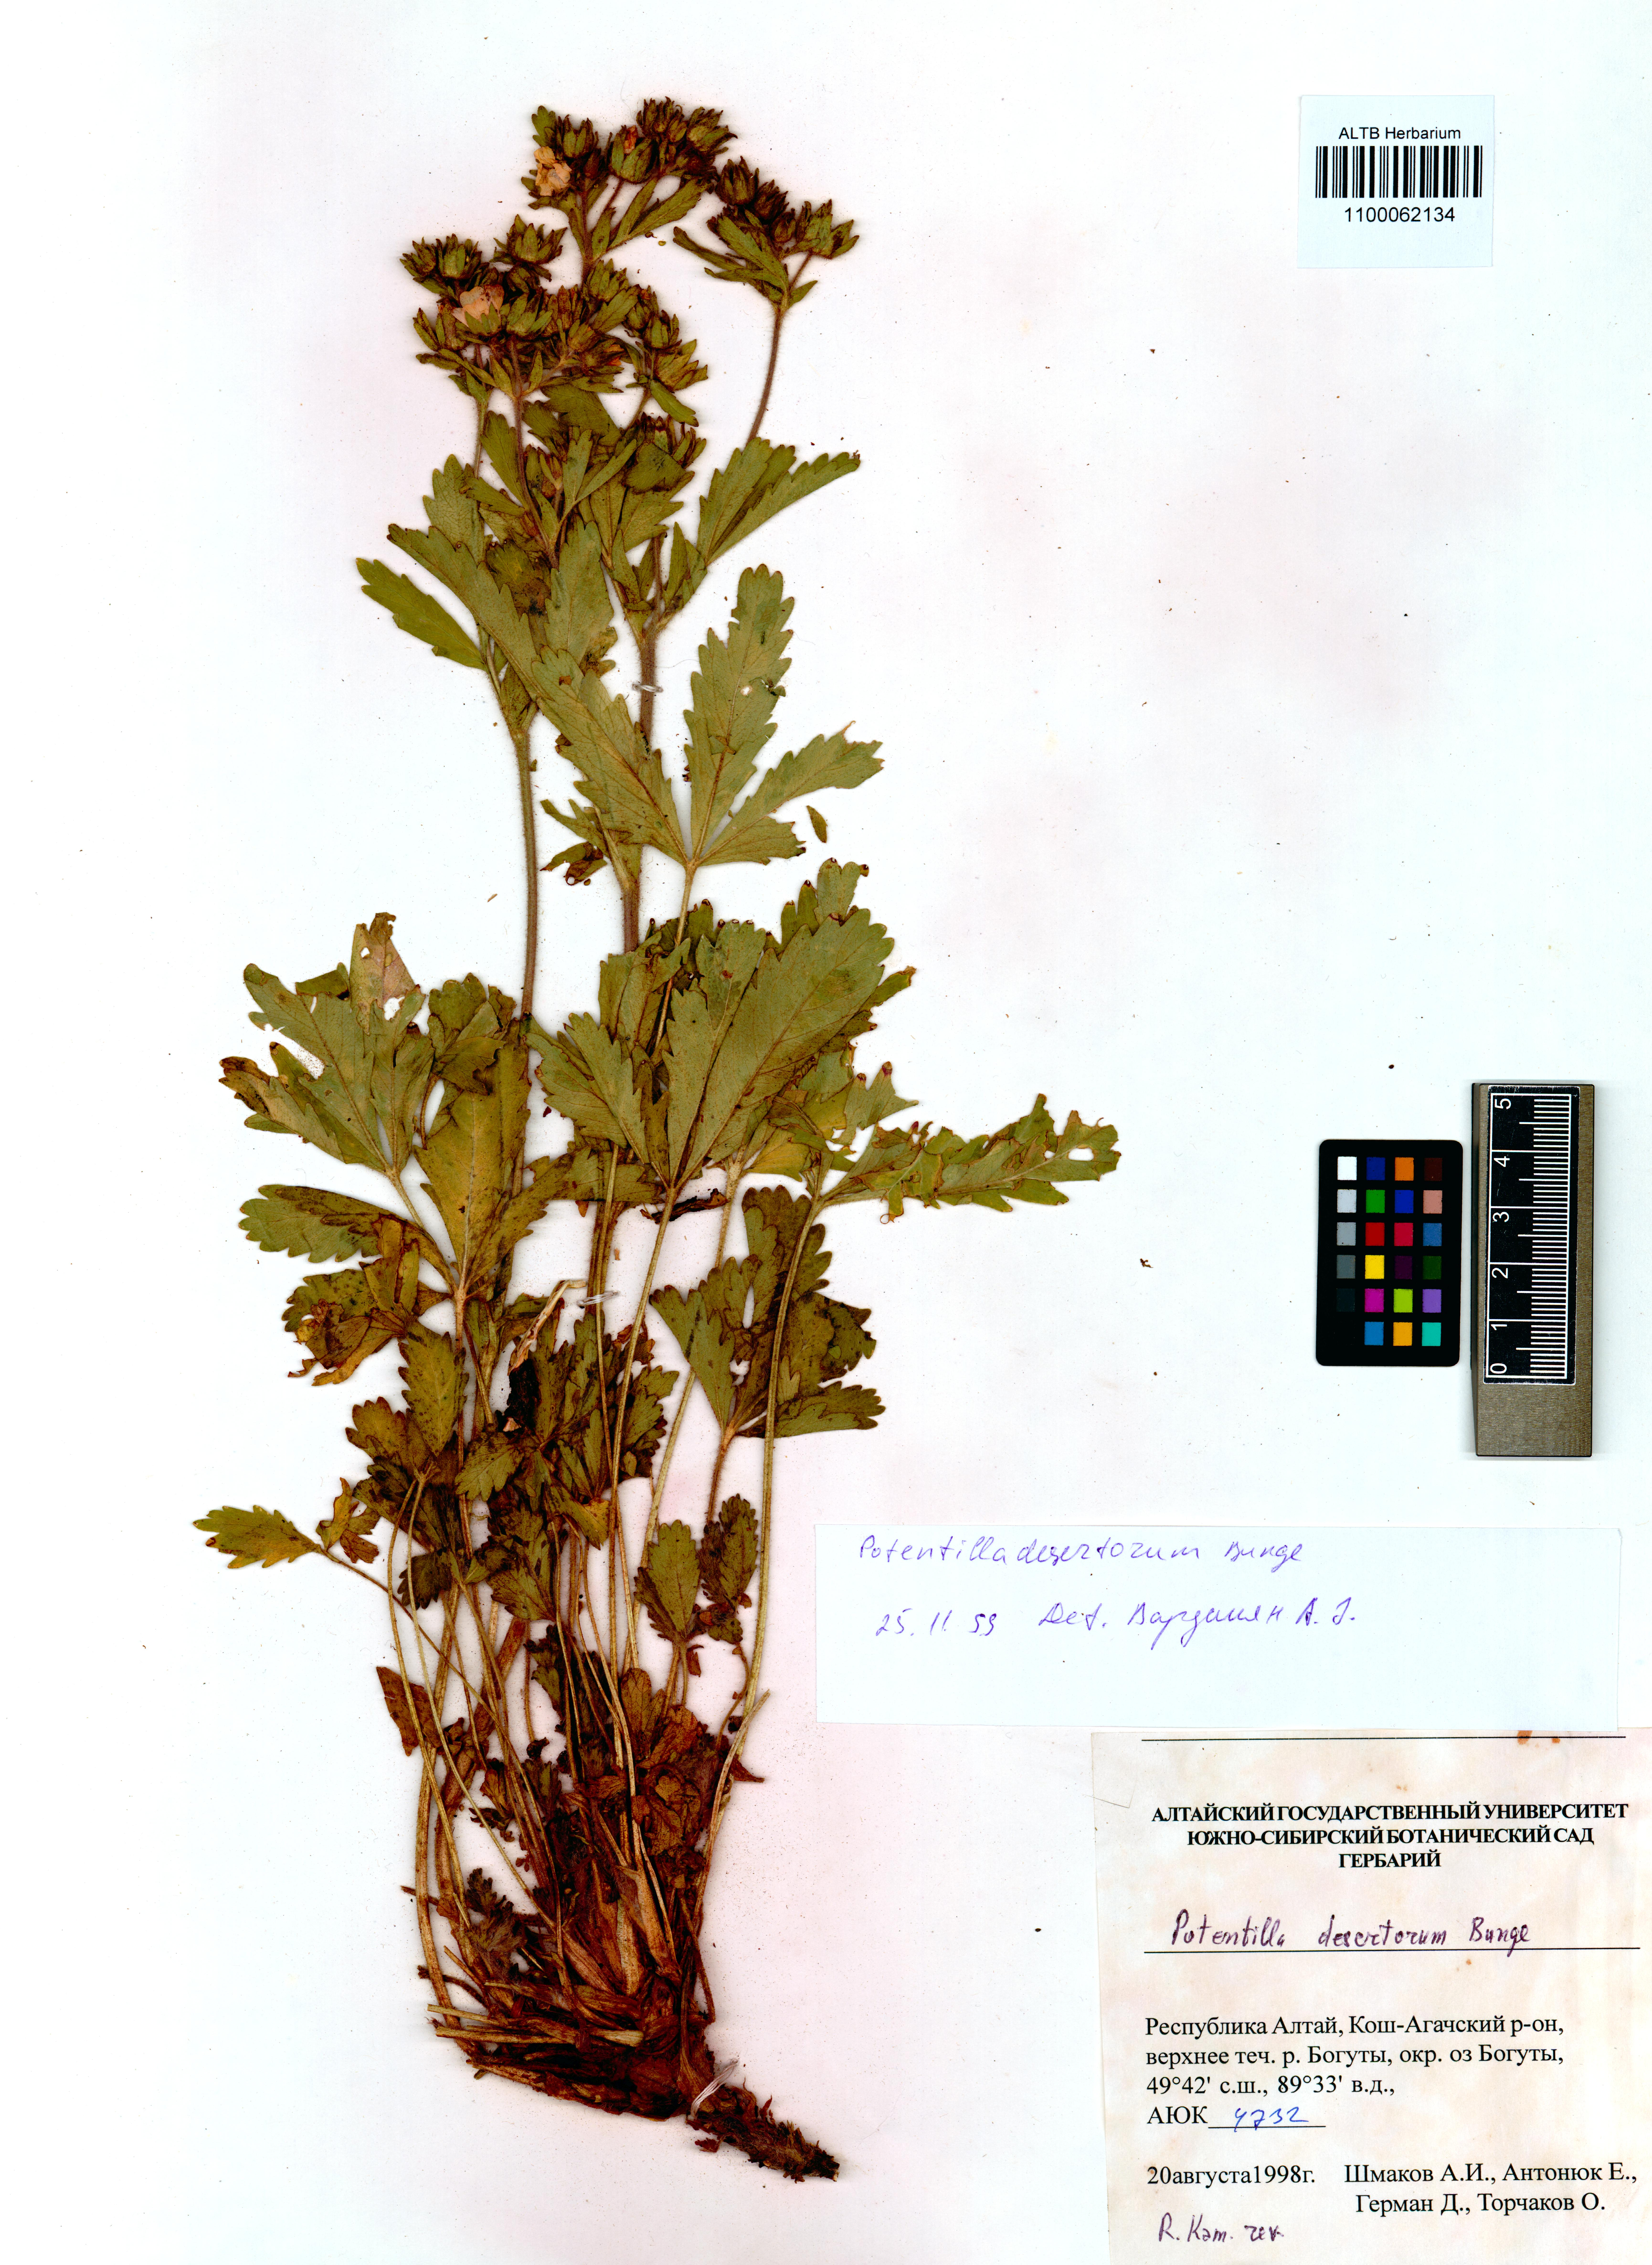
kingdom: Plantae
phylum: Tracheophyta
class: Magnoliopsida
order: Rosales
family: Rosaceae
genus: Potentilla
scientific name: Potentilla desertorum
